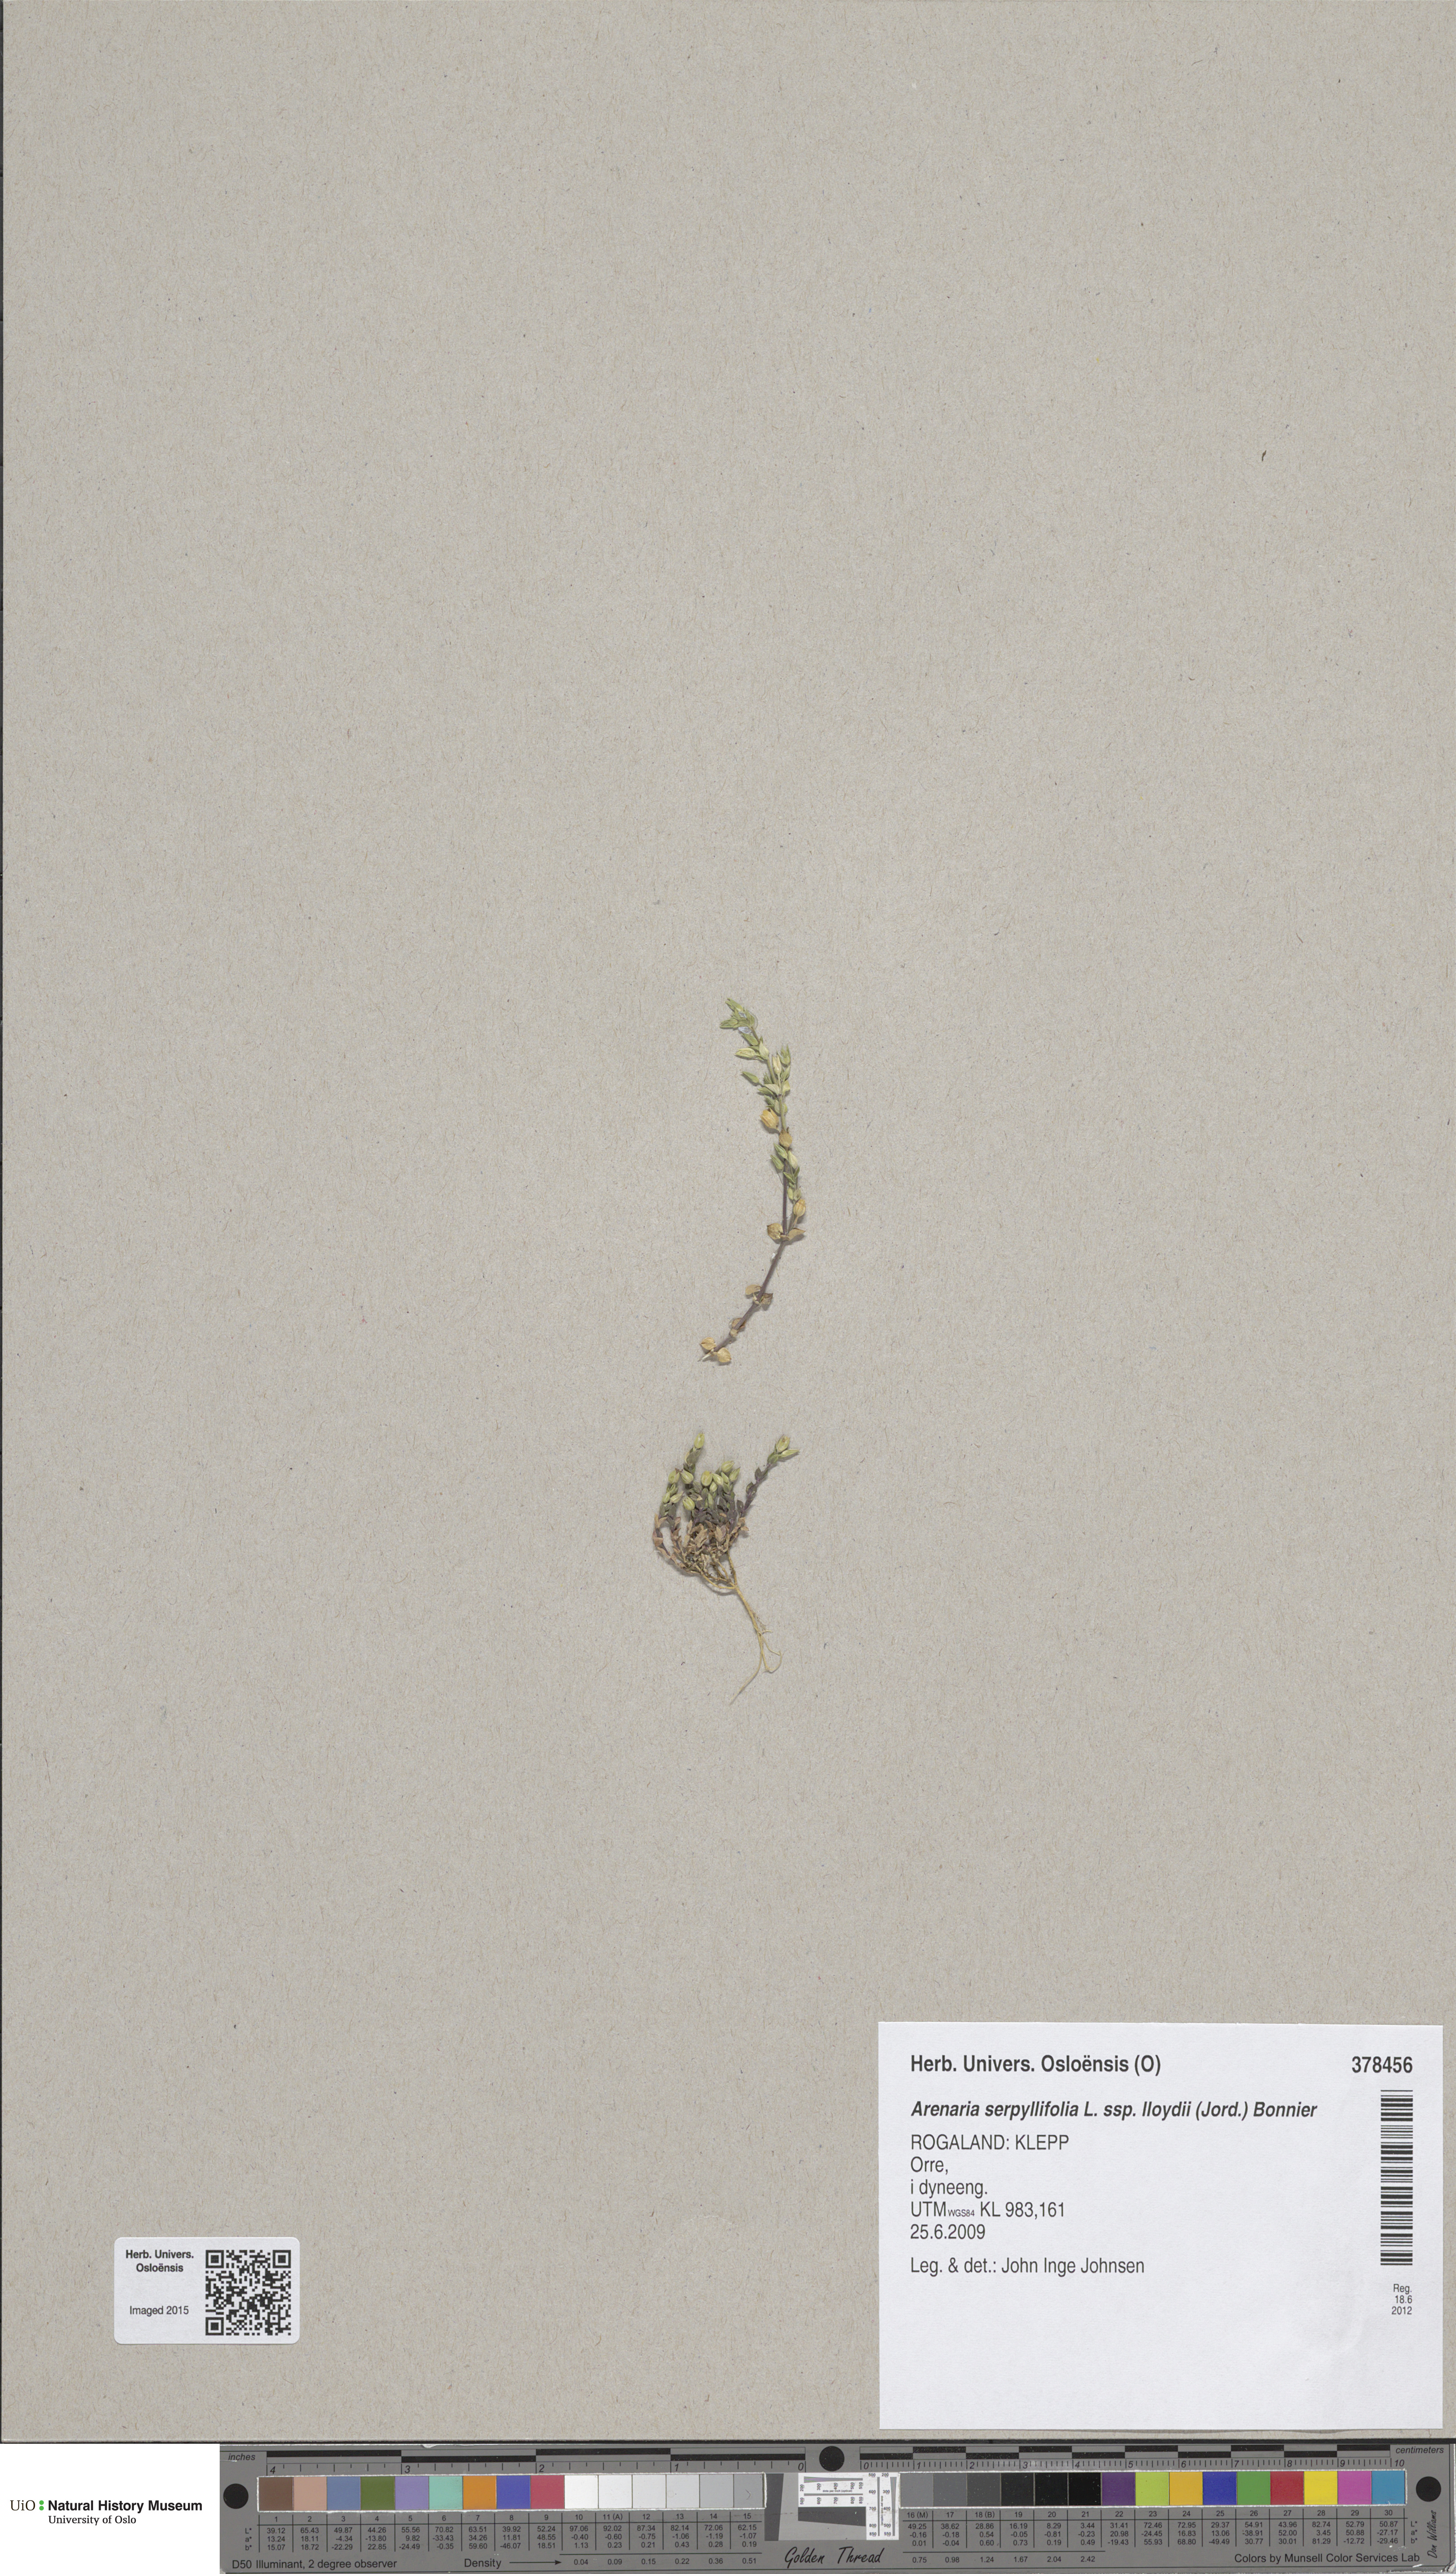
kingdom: Plantae
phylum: Tracheophyta
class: Magnoliopsida
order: Caryophyllales
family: Caryophyllaceae
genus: Arenaria
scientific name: Arenaria serpyllifolia
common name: Thyme-leaved sandwort
